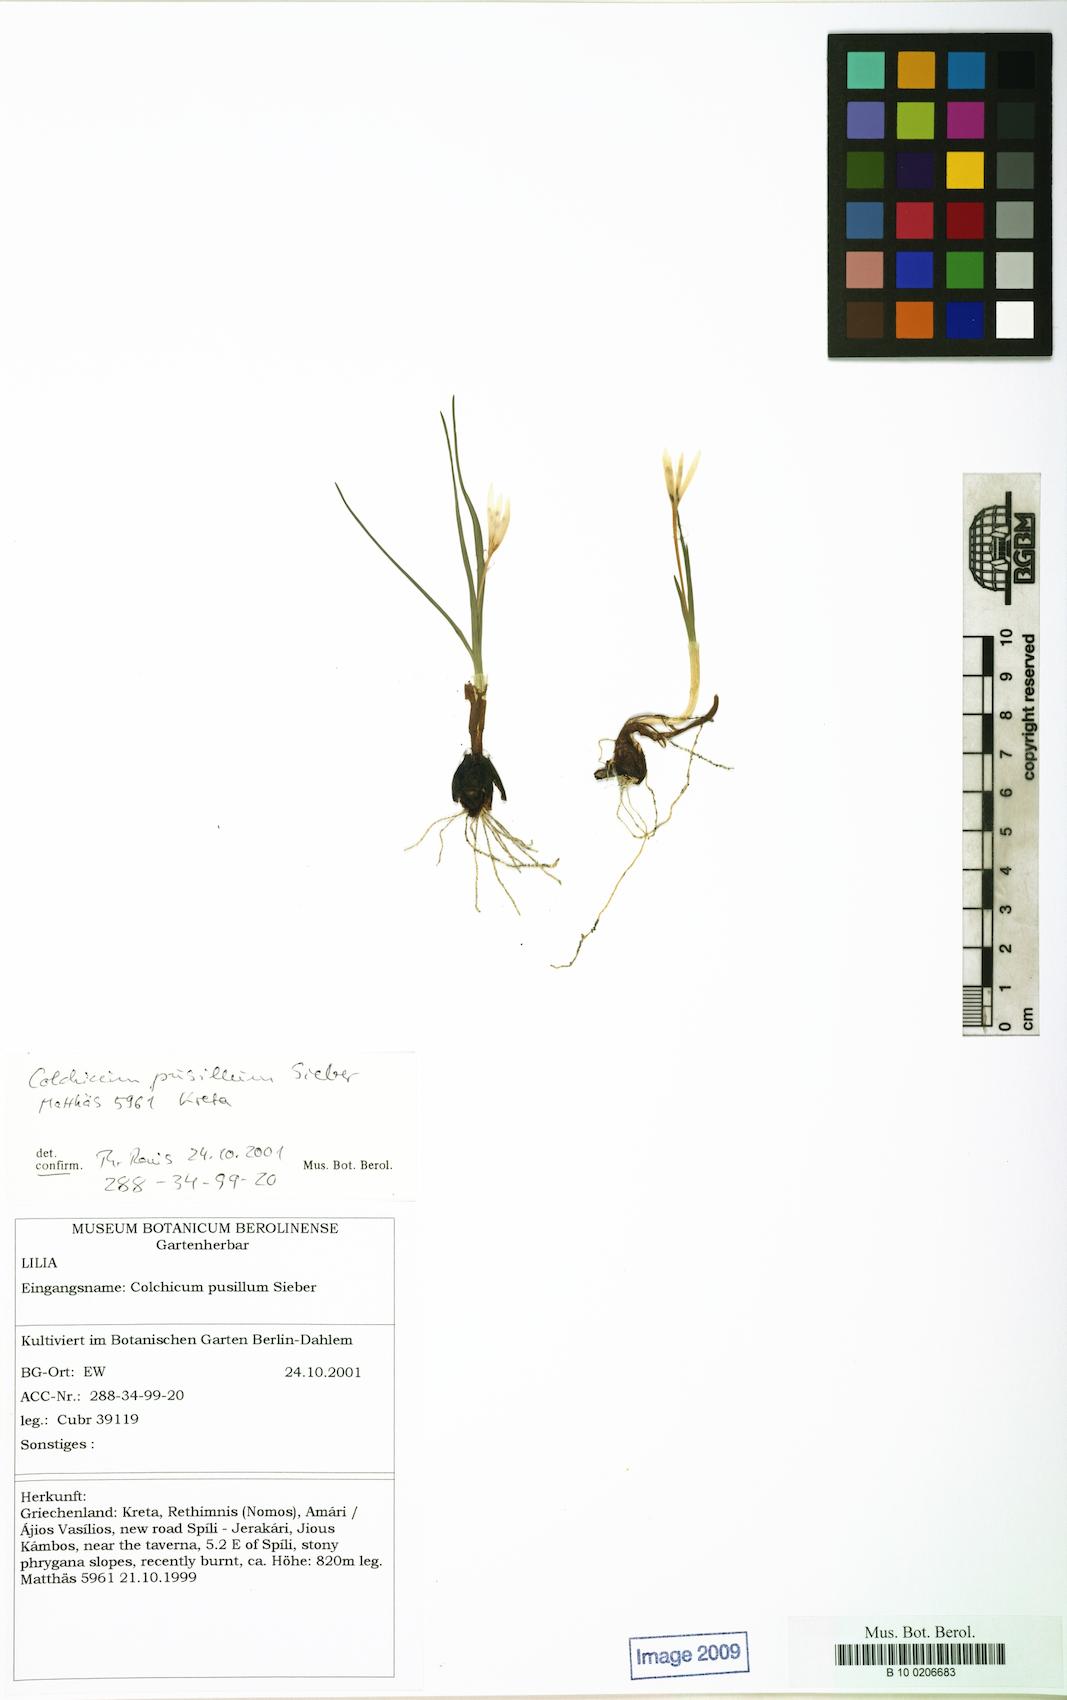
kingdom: Plantae
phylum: Tracheophyta
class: Liliopsida
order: Liliales
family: Colchicaceae
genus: Colchicum
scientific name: Colchicum pusillum
